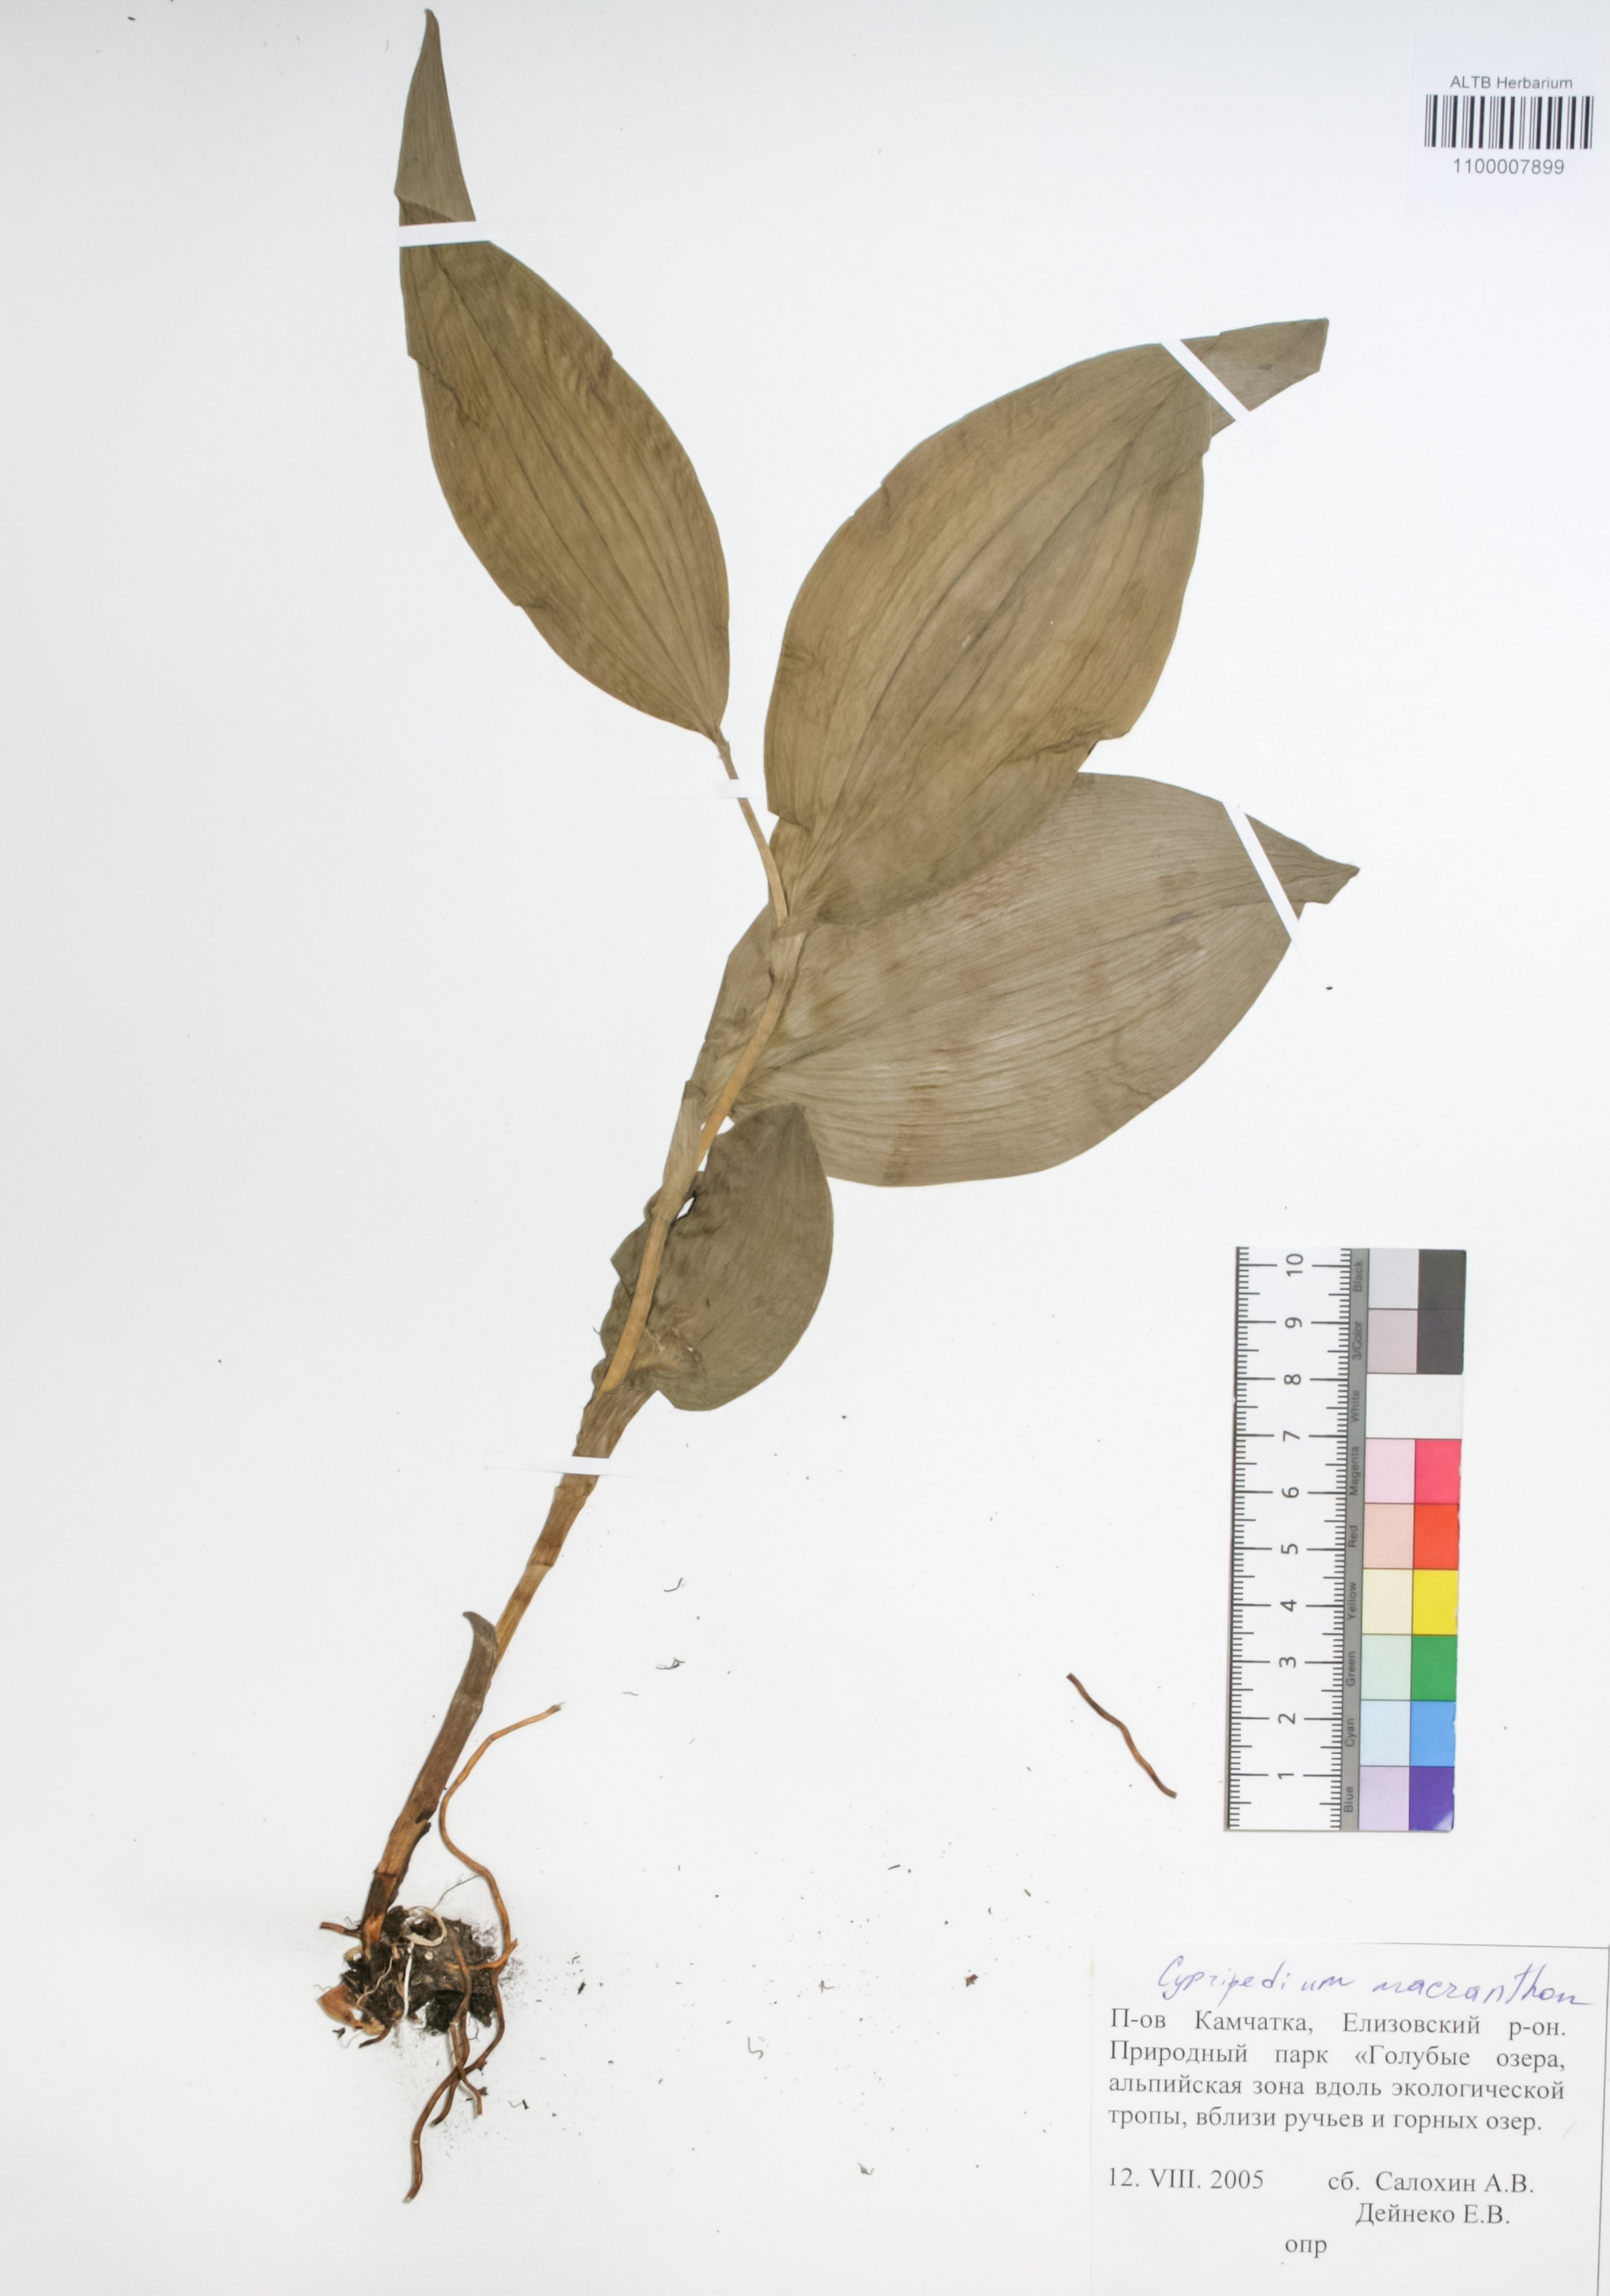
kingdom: Plantae
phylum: Tracheophyta
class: Liliopsida
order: Asparagales
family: Orchidaceae
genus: Cypripedium
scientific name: Cypripedium macranthon
